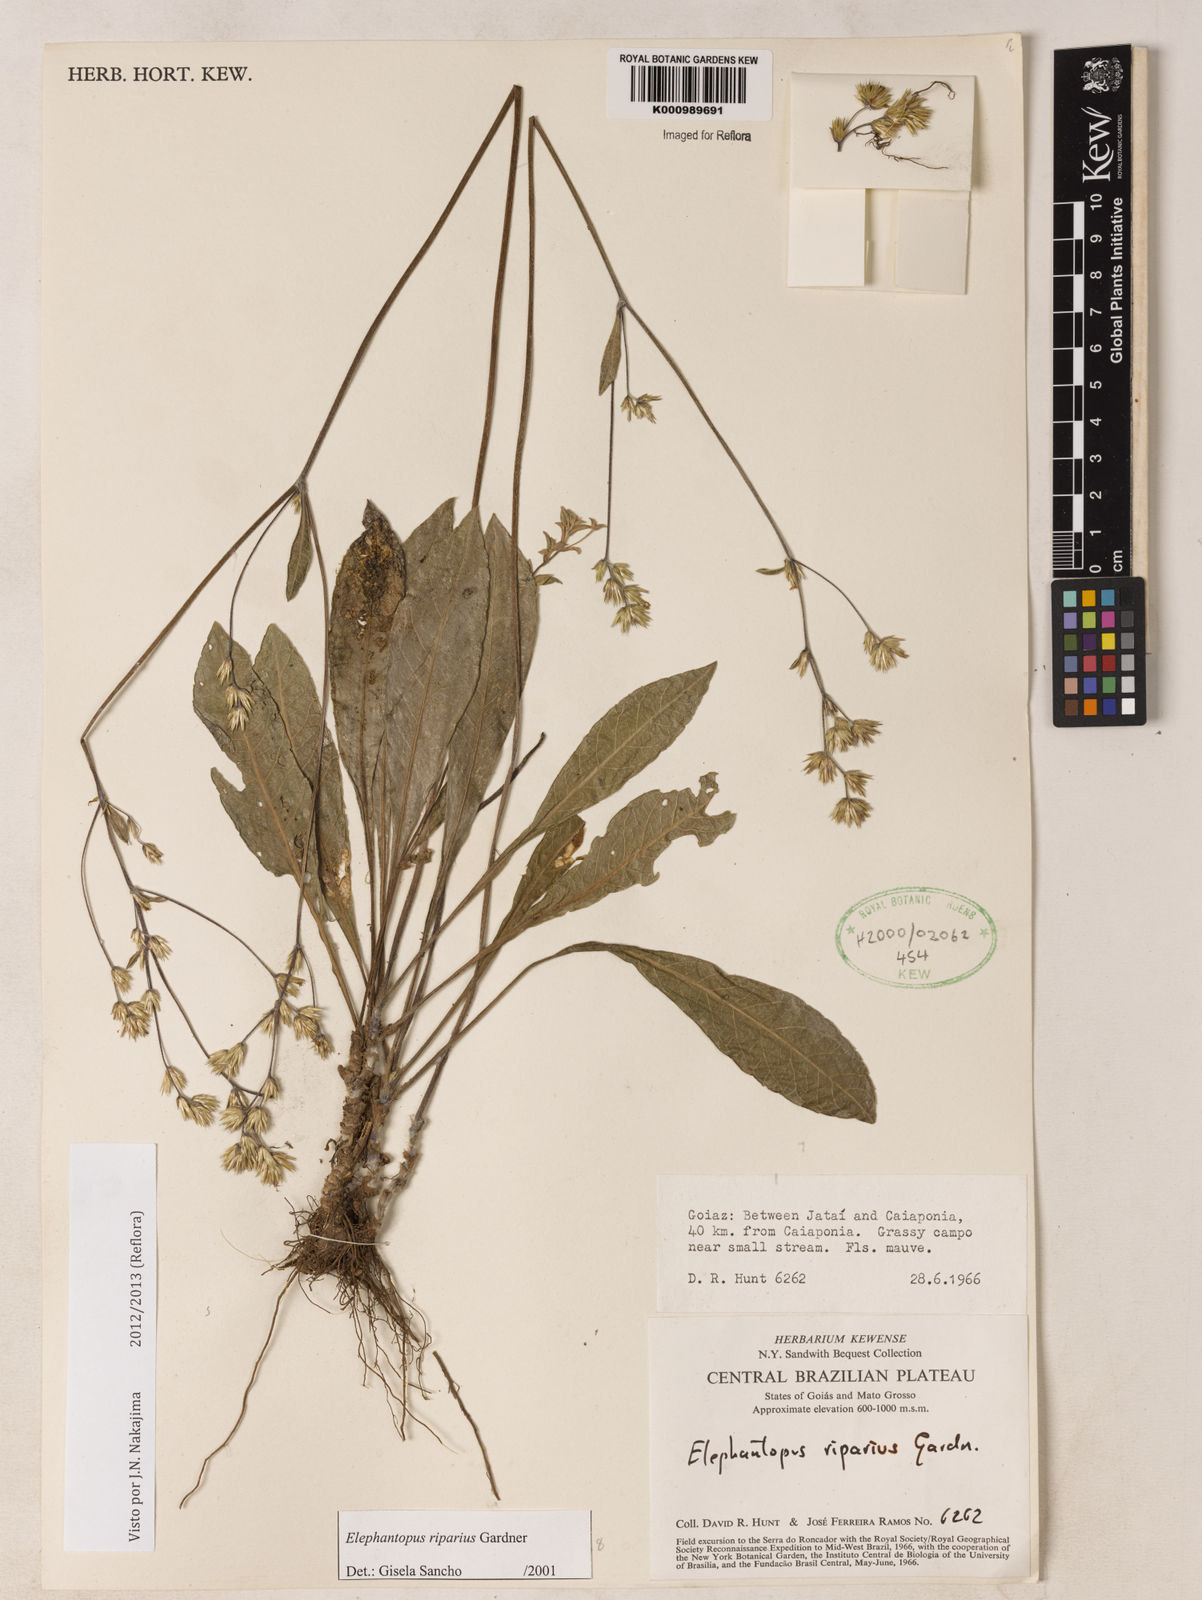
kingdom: Plantae
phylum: Tracheophyta
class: Magnoliopsida
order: Asterales
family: Asteraceae
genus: Elephantopus
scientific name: Elephantopus riparius
